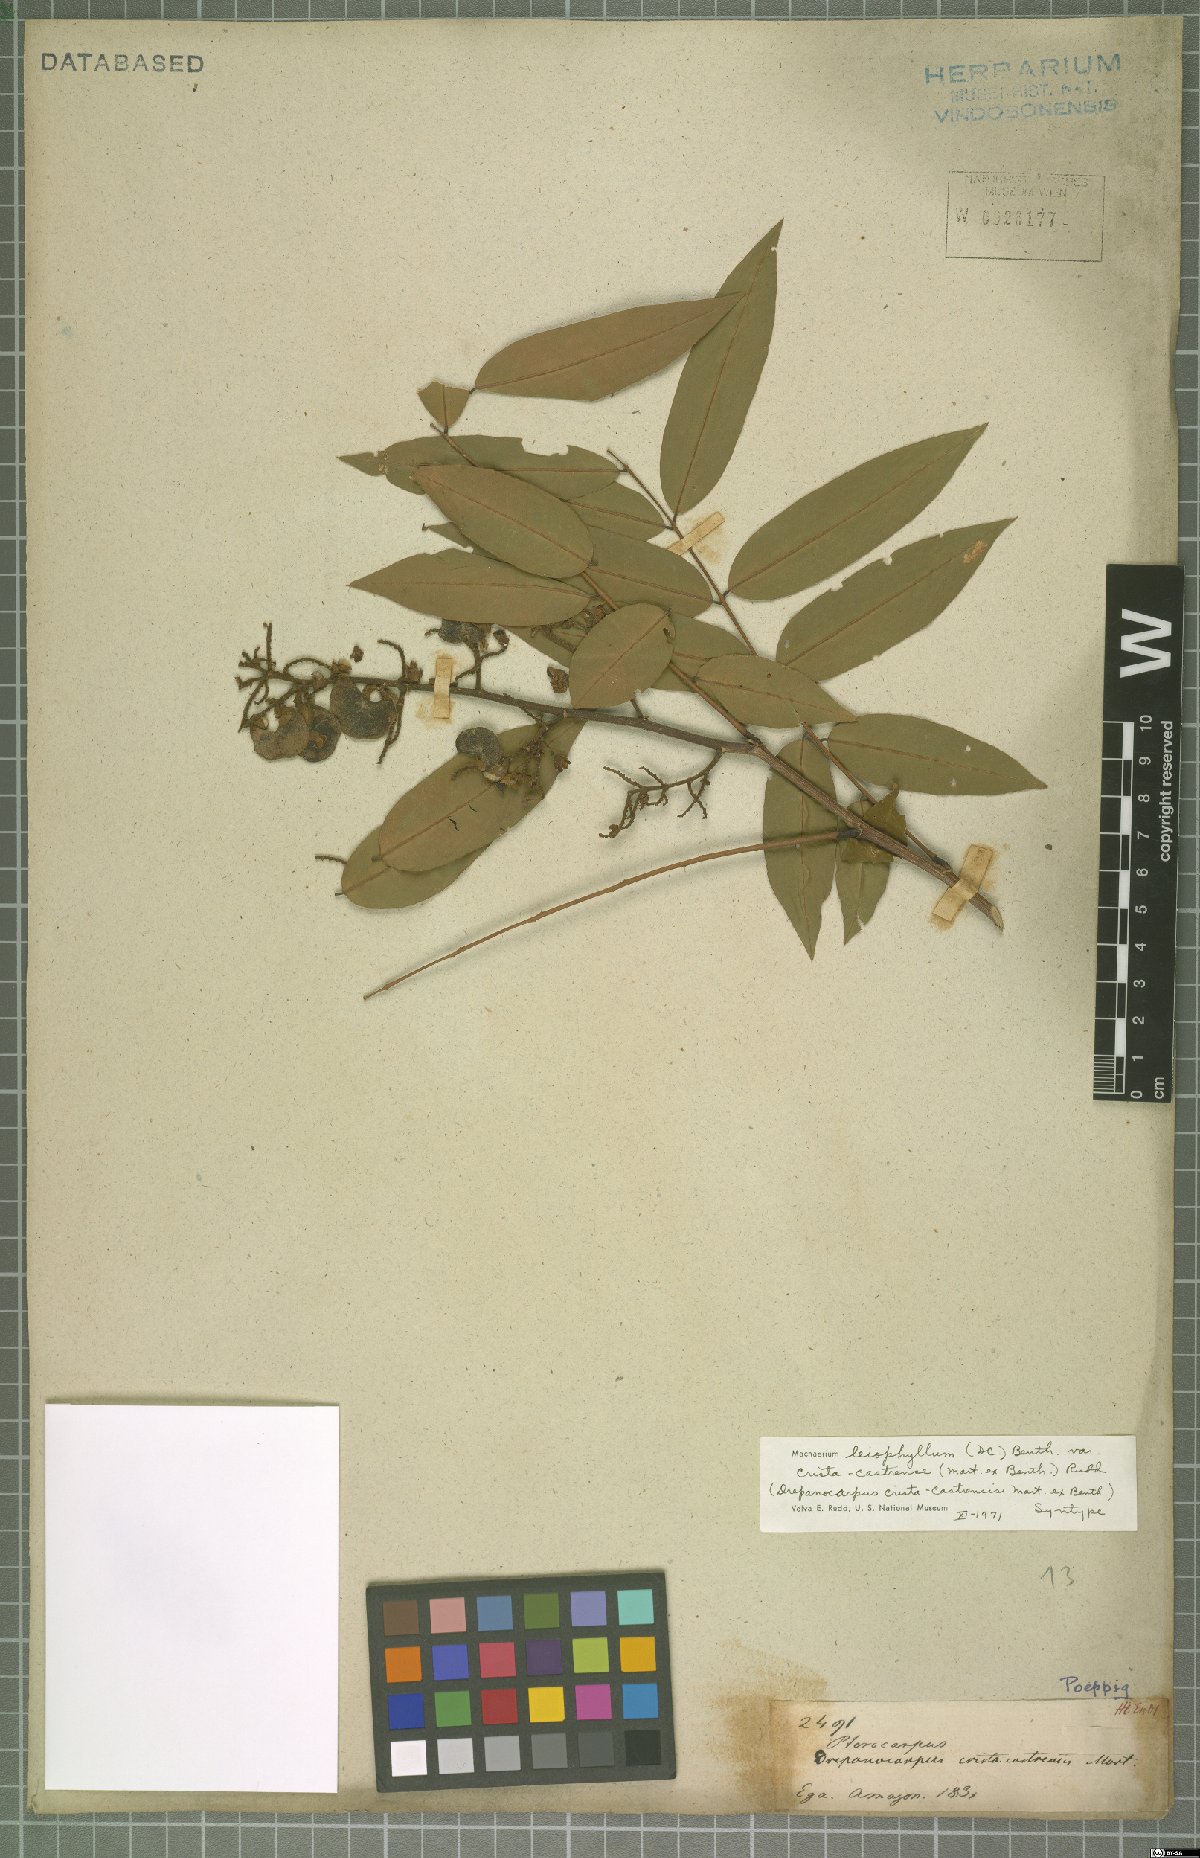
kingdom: Plantae
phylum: Tracheophyta
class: Magnoliopsida
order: Fabales
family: Fabaceae
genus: Machaerium
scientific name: Machaerium leiophyllum
